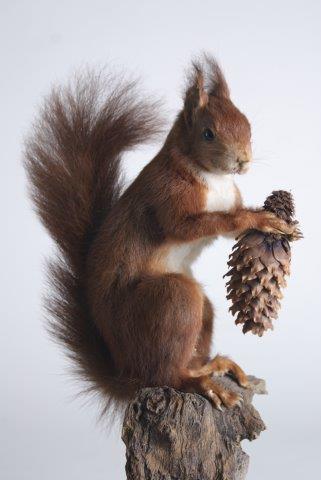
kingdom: Animalia
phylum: Chordata
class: Mammalia
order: Rodentia
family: Sciuridae
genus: Sciurus
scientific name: Sciurus vulgaris
